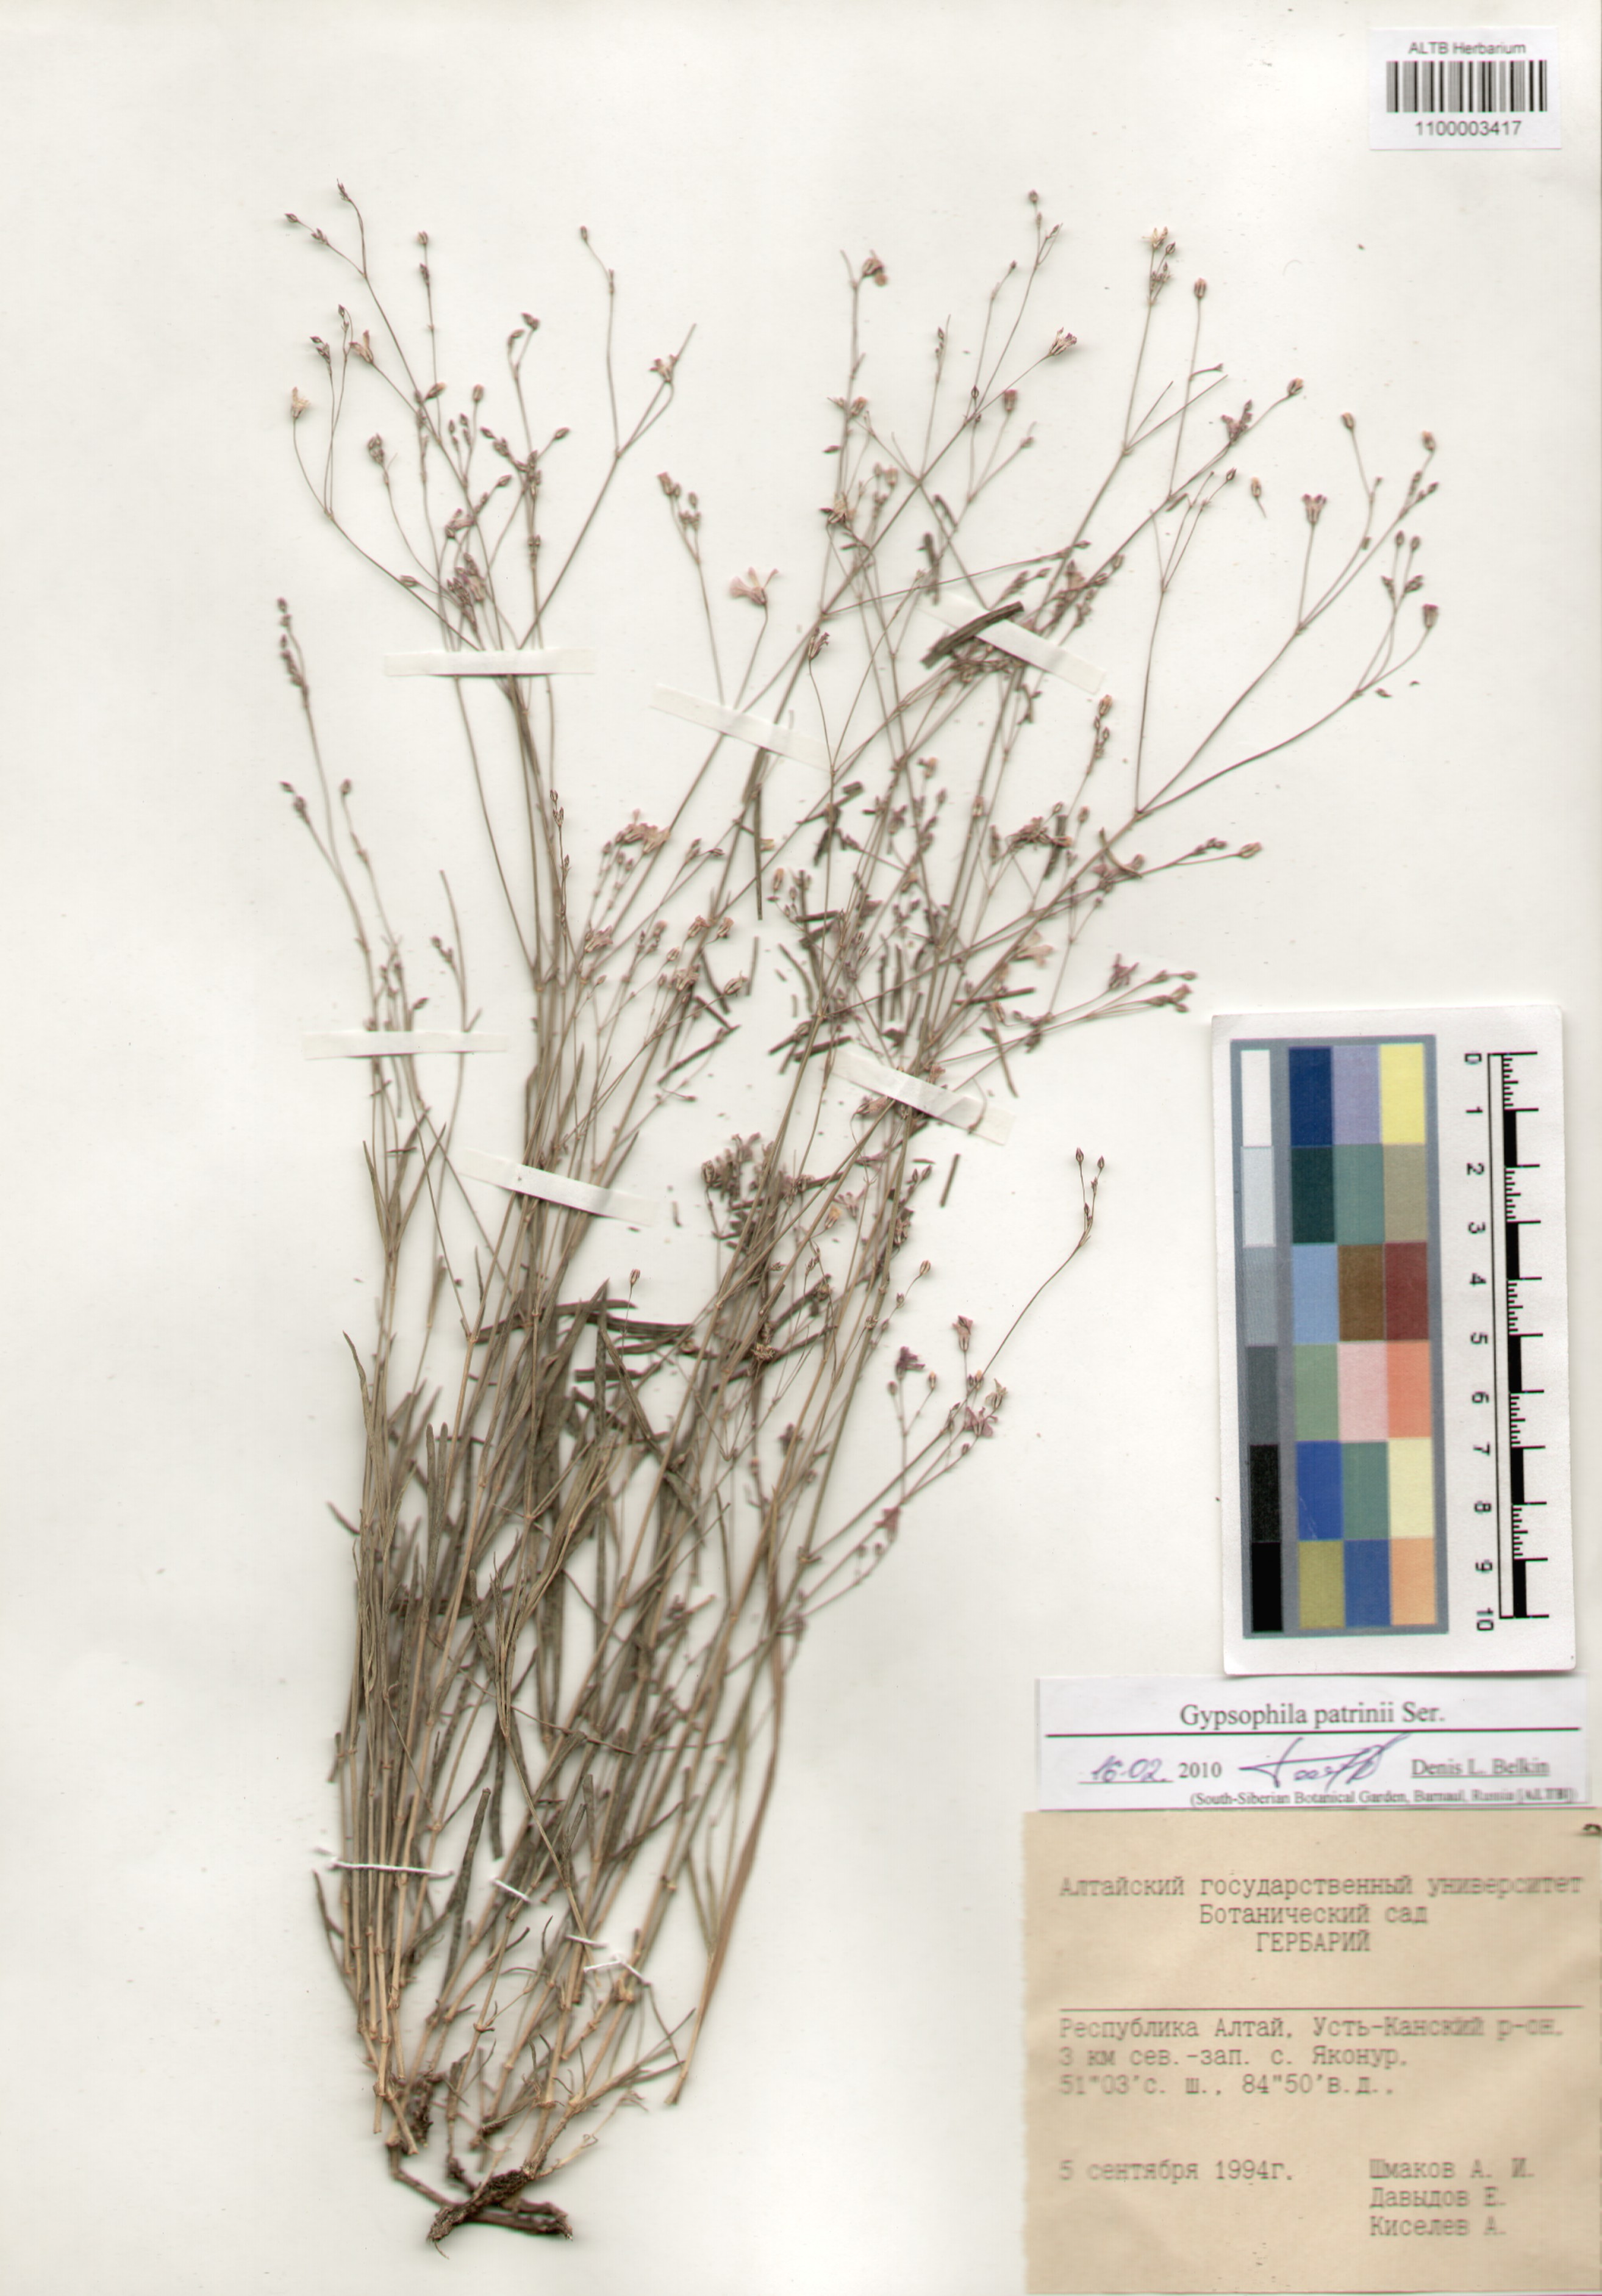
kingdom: Plantae
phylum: Tracheophyta
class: Magnoliopsida
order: Caryophyllales
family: Caryophyllaceae
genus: Gypsophila
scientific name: Gypsophila patrinii
